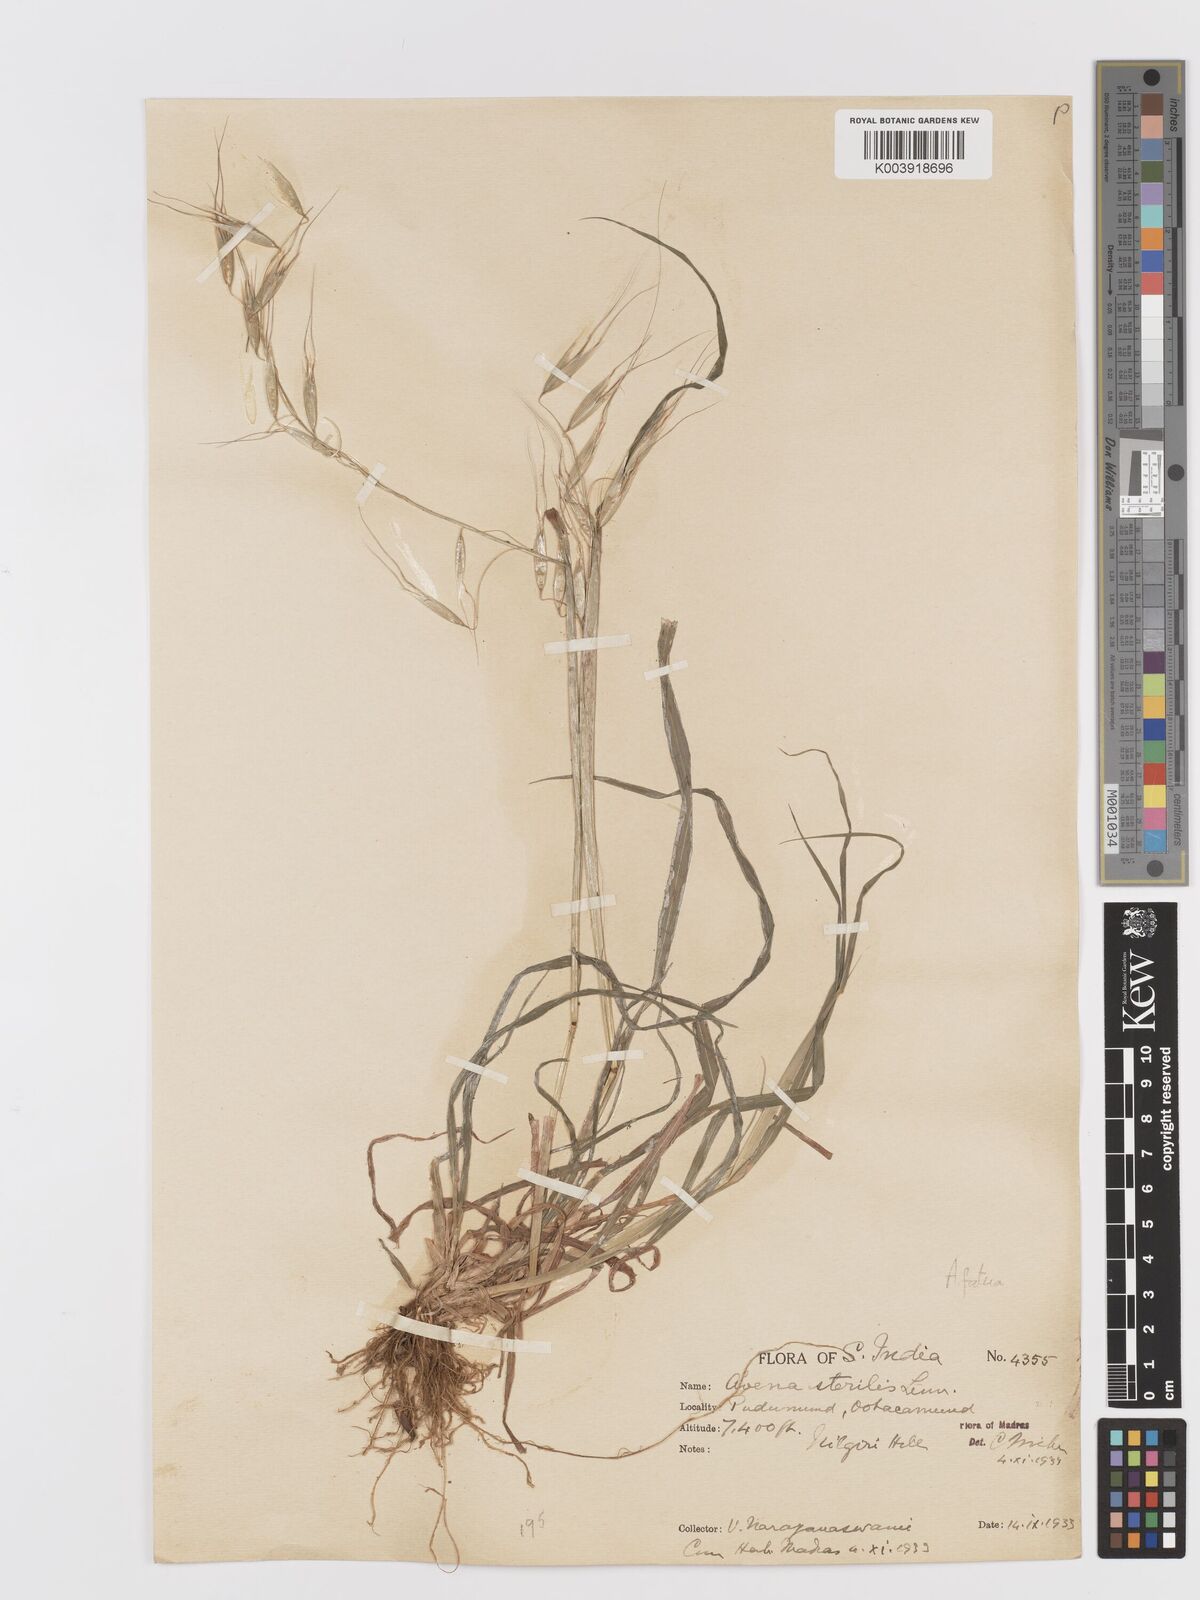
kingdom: Plantae
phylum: Tracheophyta
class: Liliopsida
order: Poales
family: Poaceae
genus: Avena
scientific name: Avena fatua
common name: Wild oat
